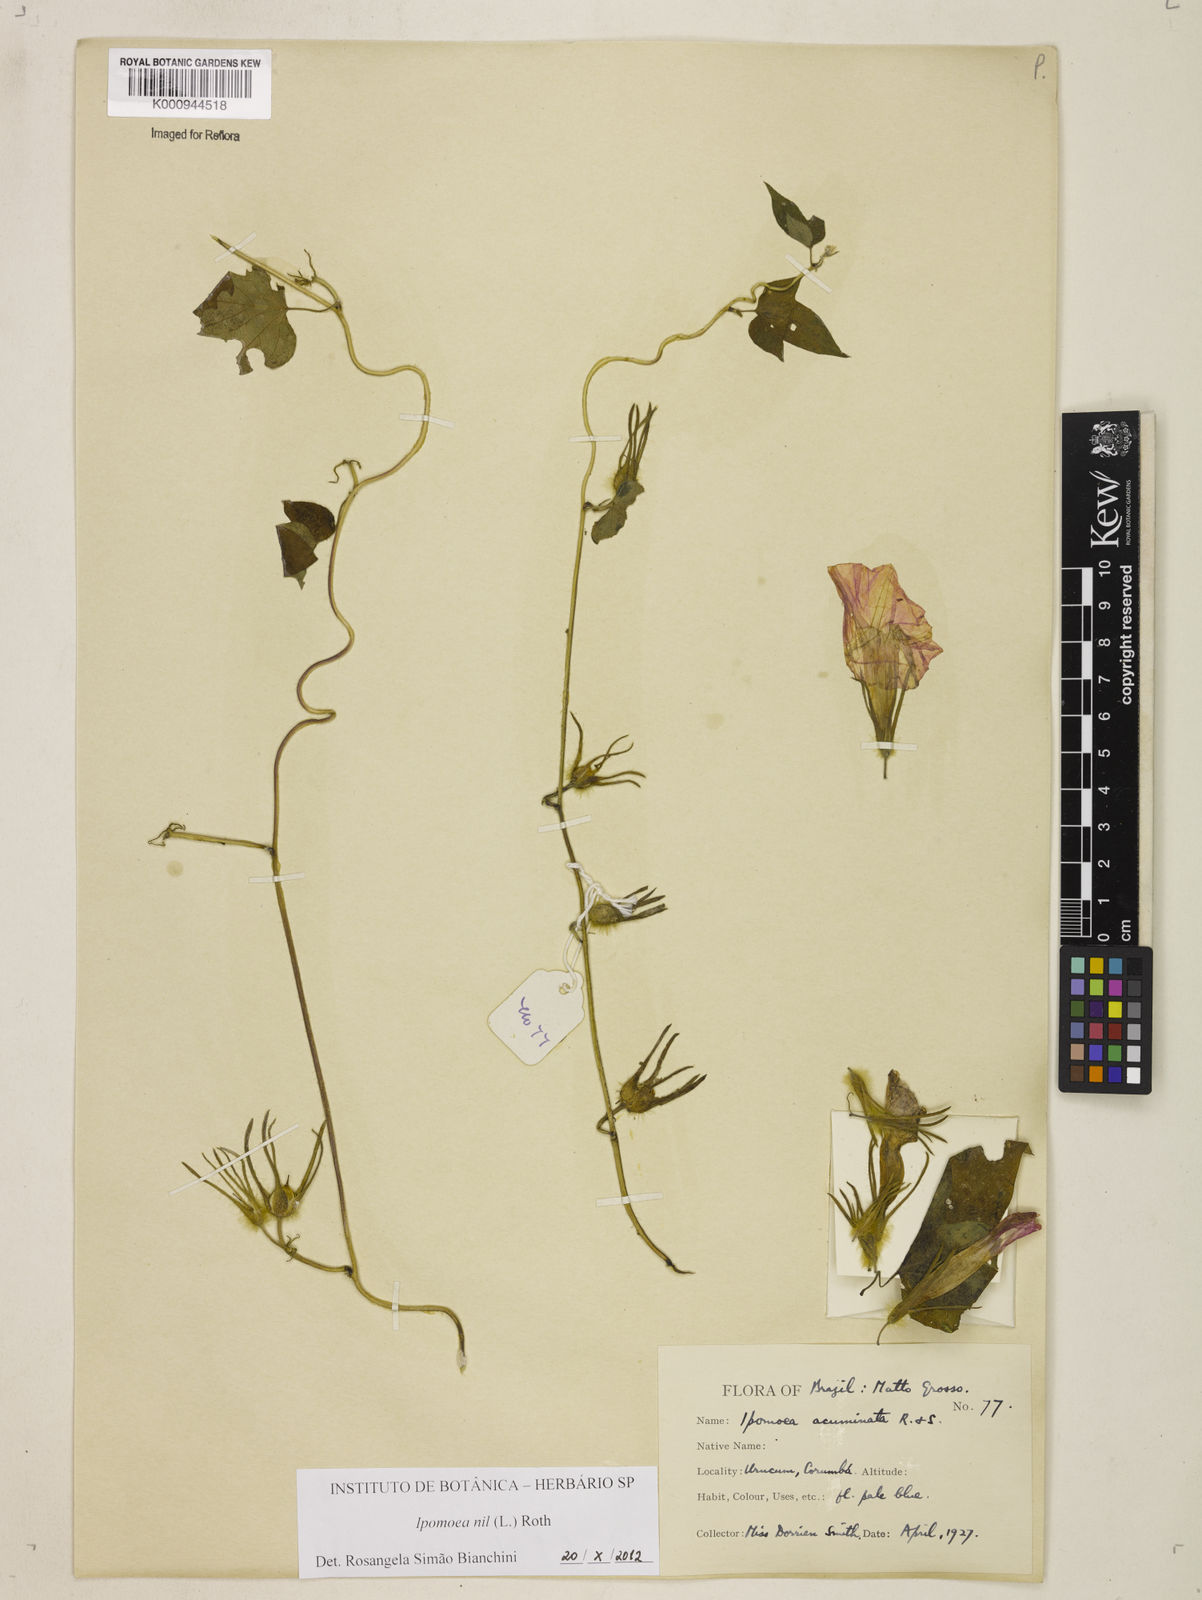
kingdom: Plantae
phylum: Tracheophyta
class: Magnoliopsida
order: Solanales
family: Convolvulaceae
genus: Ipomoea
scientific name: Ipomoea nil
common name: Japanese morning-glory
